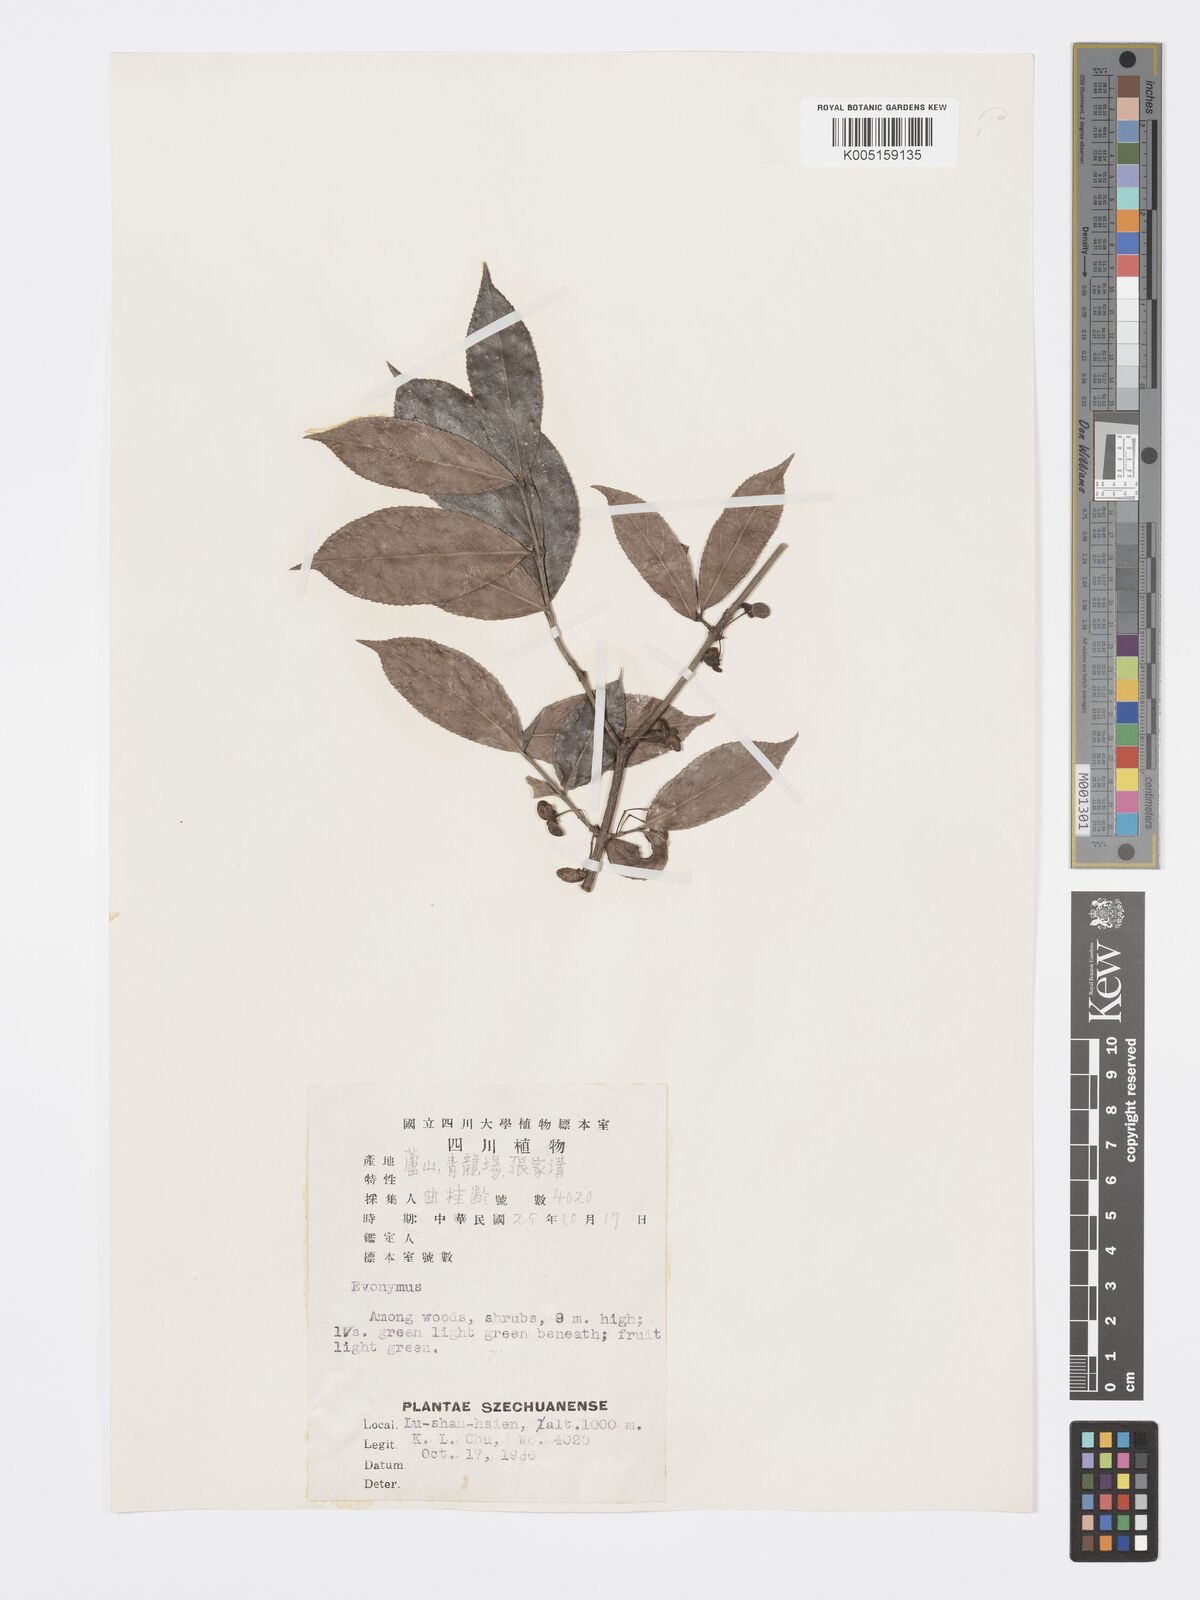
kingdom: Plantae
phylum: Tracheophyta
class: Magnoliopsida
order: Celastrales
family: Celastraceae
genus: Euonymus
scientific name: Euonymus centidens
